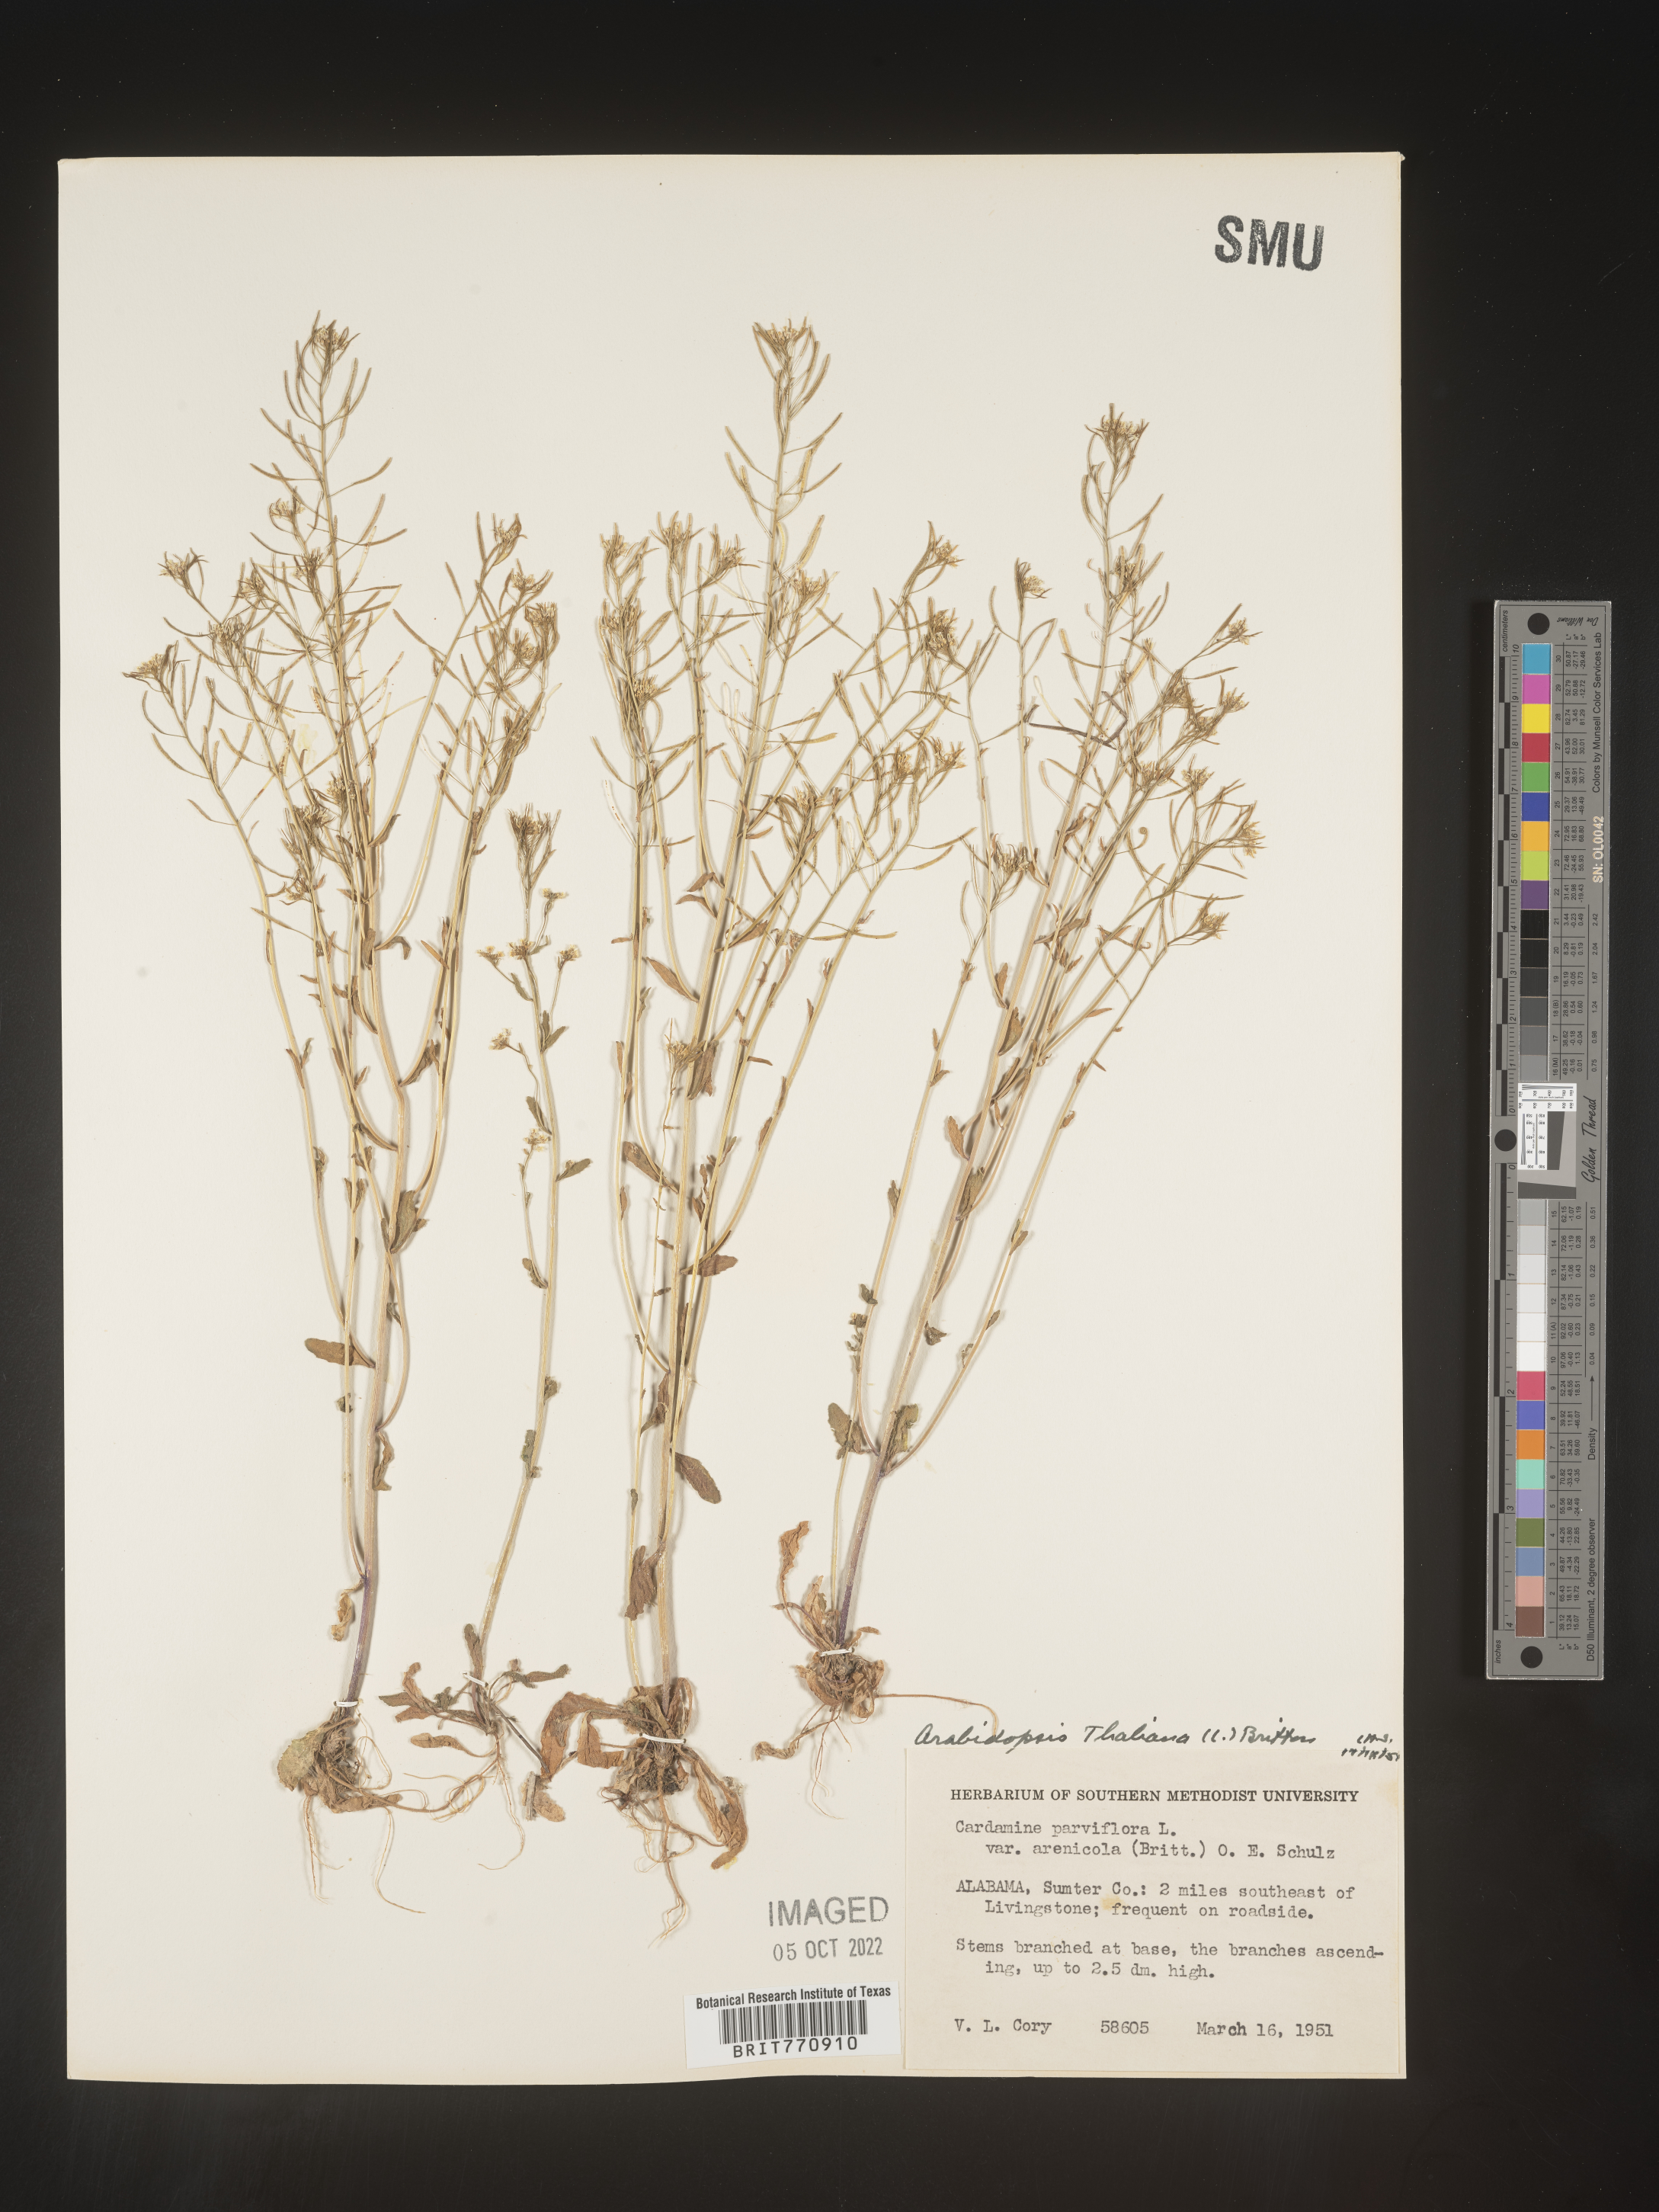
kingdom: Plantae
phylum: Tracheophyta
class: Magnoliopsida
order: Brassicales
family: Brassicaceae
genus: Arabidopsis
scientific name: Arabidopsis thaliana
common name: Thale cress
